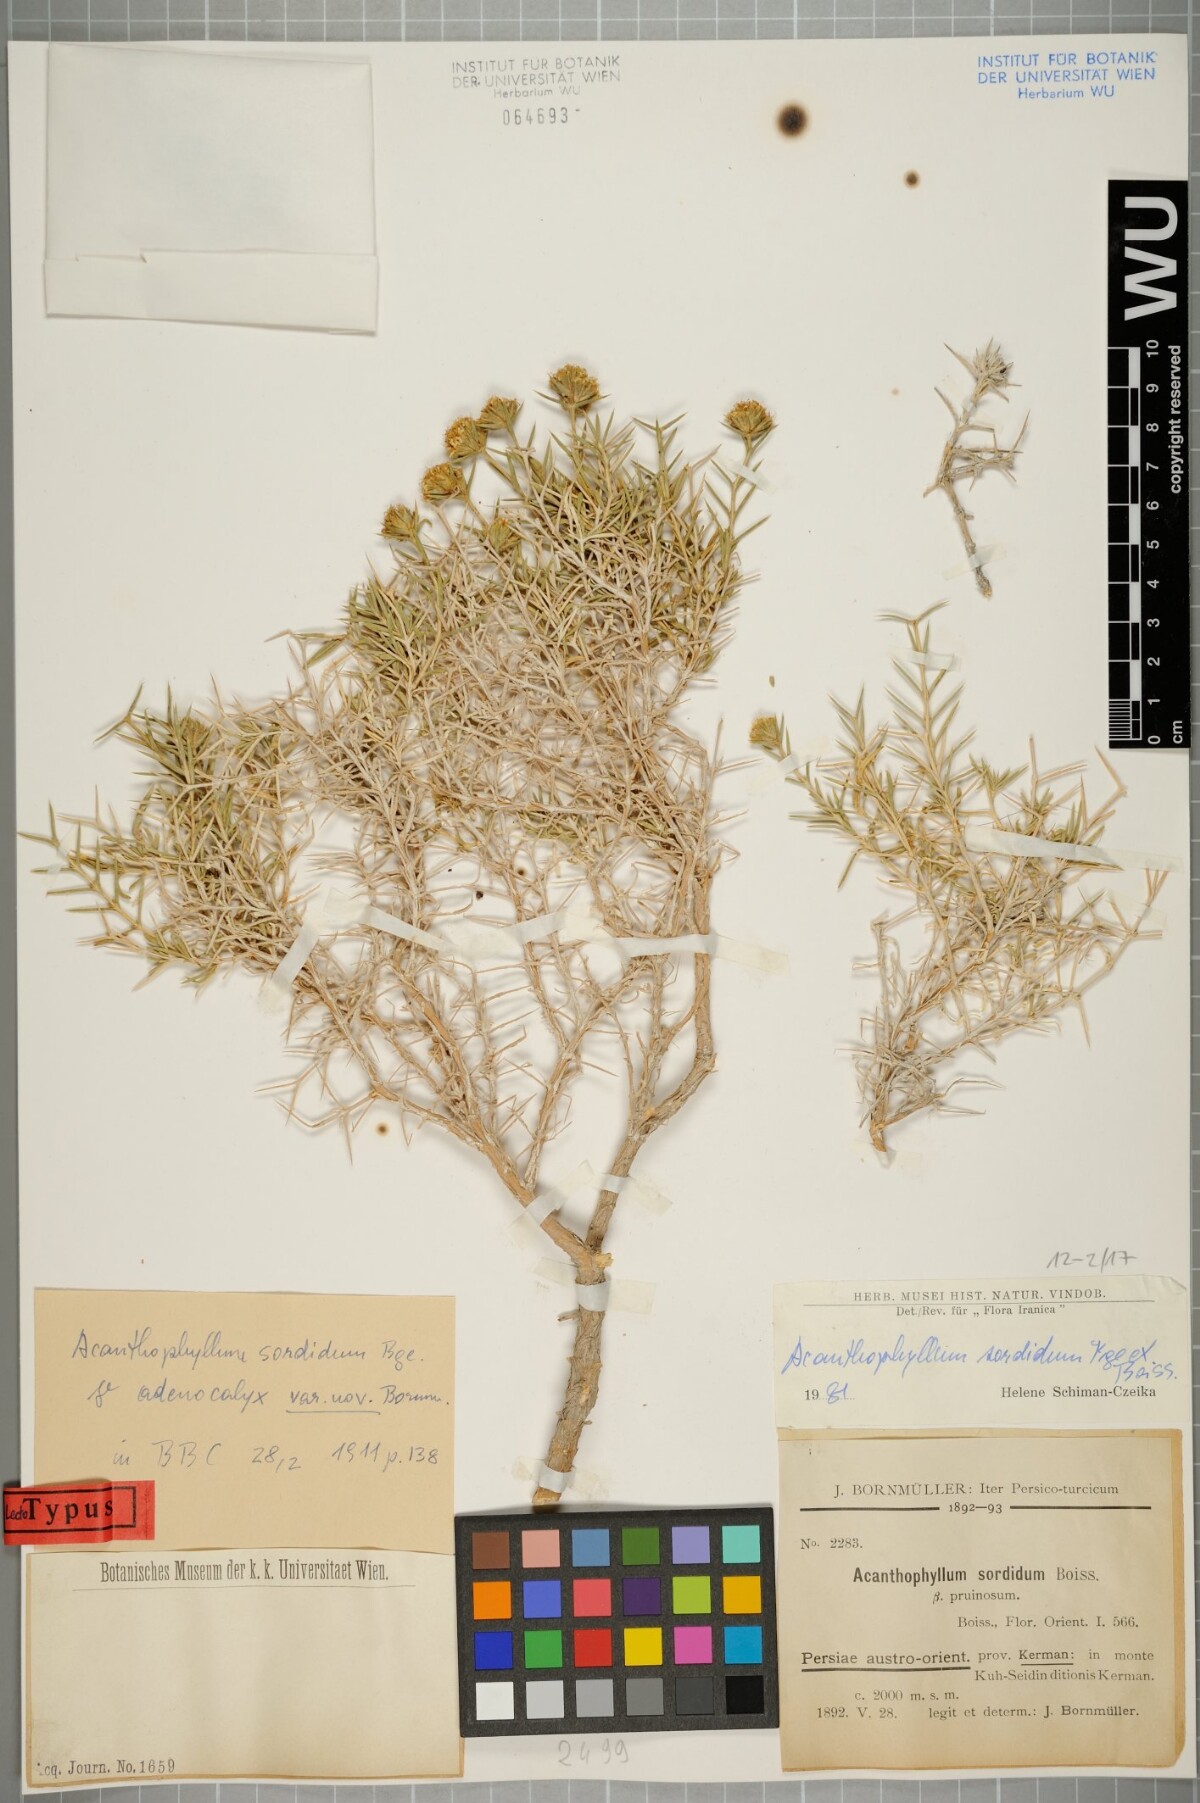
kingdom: Plantae
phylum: Tracheophyta
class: Magnoliopsida
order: Caryophyllales
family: Caryophyllaceae
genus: Acanthophyllum
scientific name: Acanthophyllum sordidum
